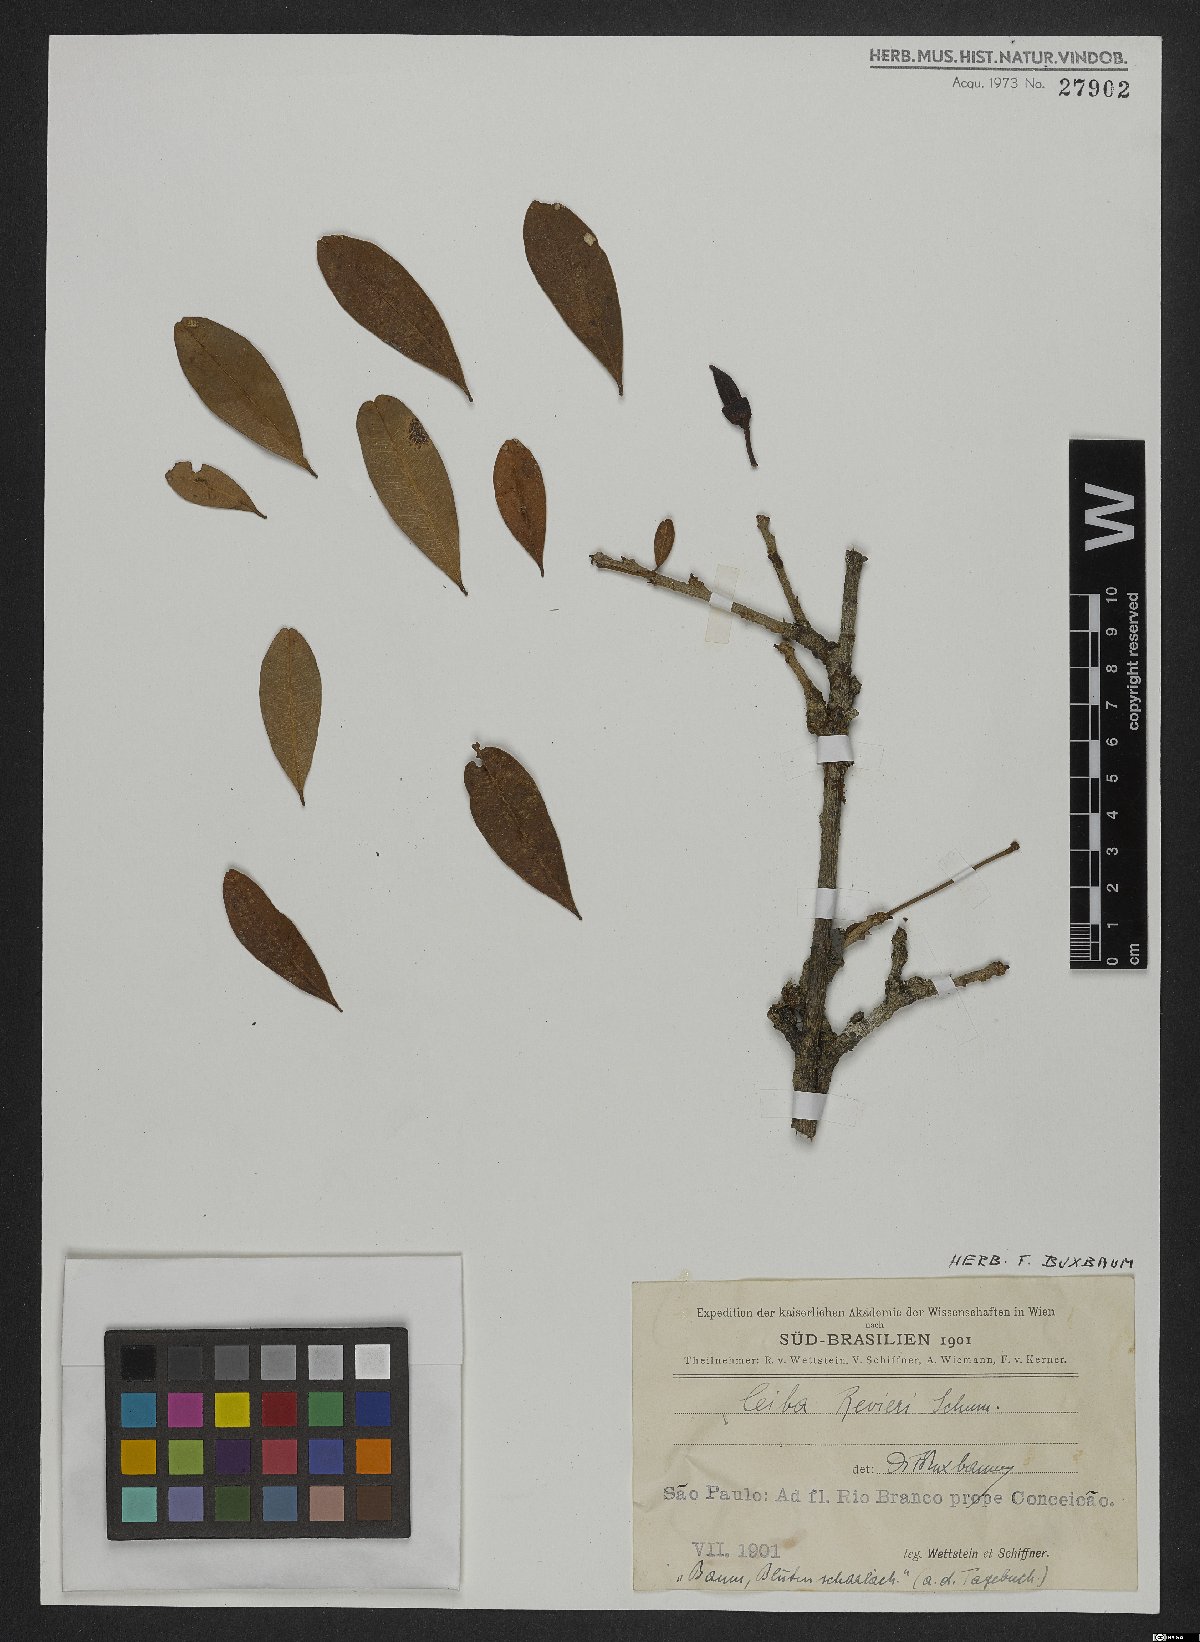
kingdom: Plantae
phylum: Tracheophyta
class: Magnoliopsida
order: Malvales
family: Malvaceae
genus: Spirotheca
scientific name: Spirotheca rivieri
